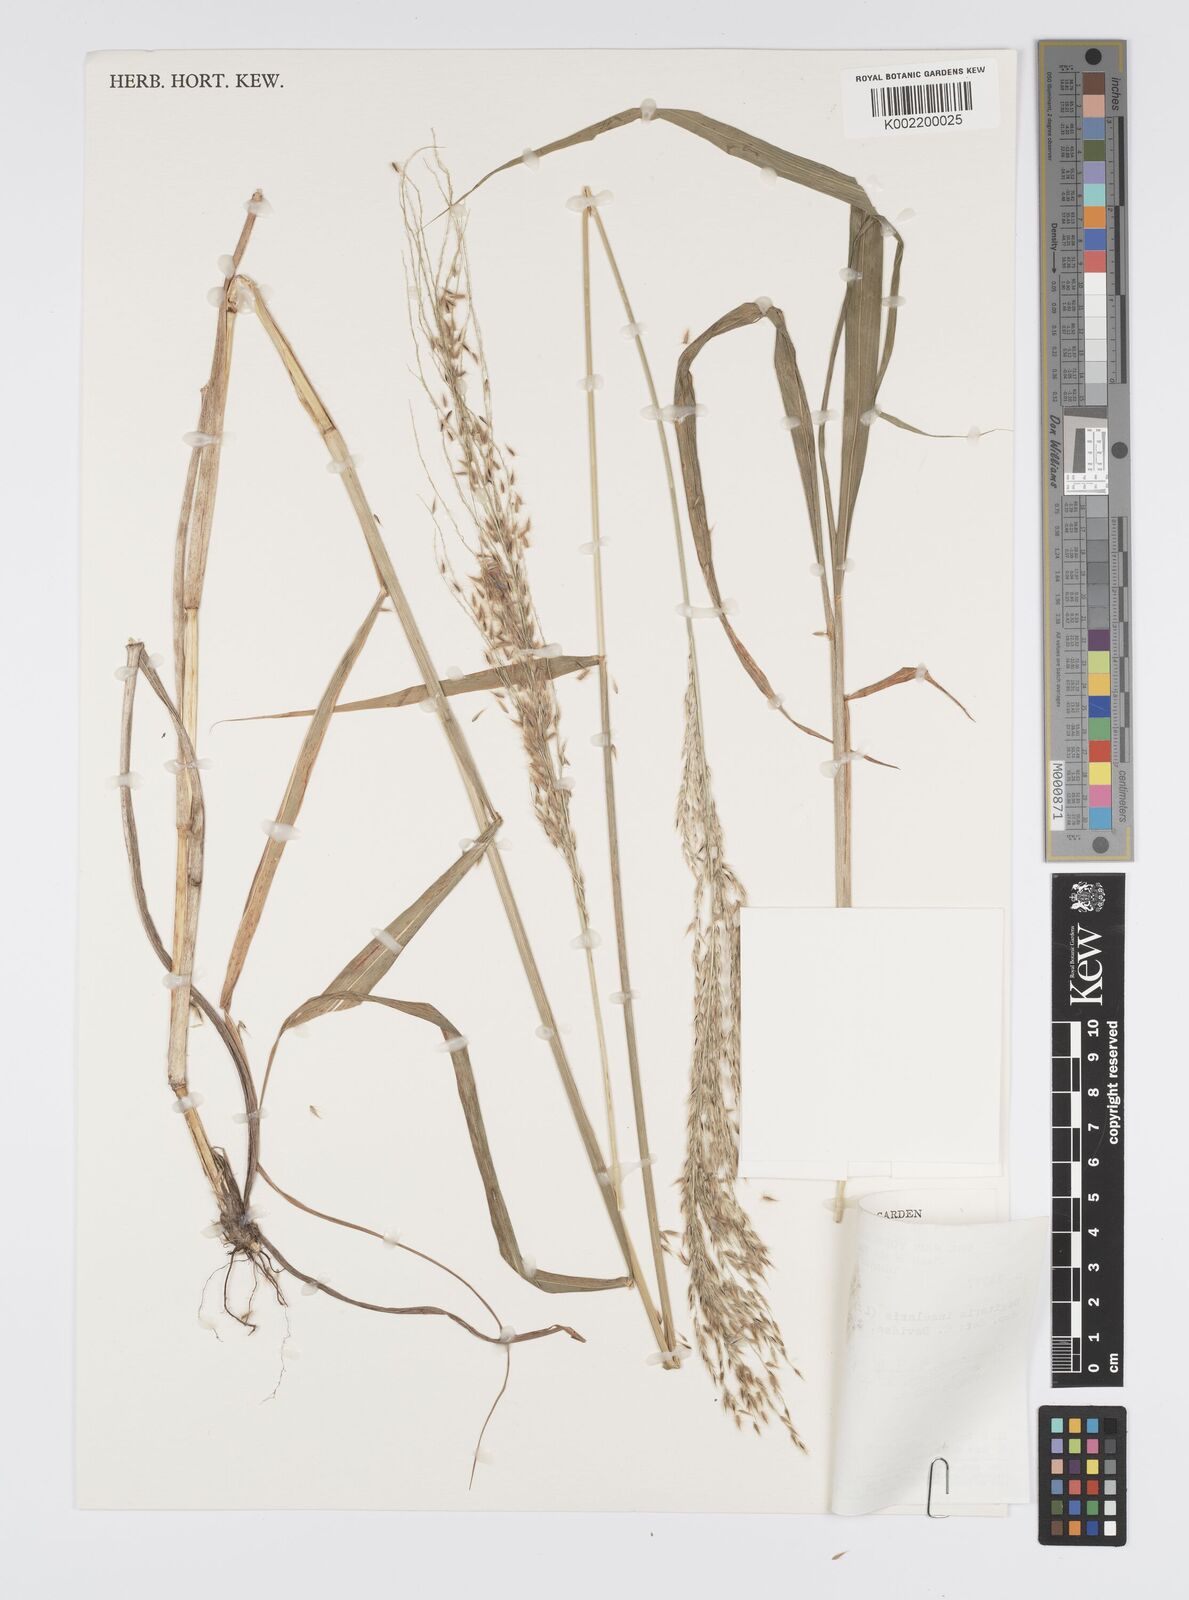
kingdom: Plantae
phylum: Tracheophyta
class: Liliopsida
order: Poales
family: Poaceae
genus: Digitaria
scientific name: Digitaria insularis
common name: Sourgrass
